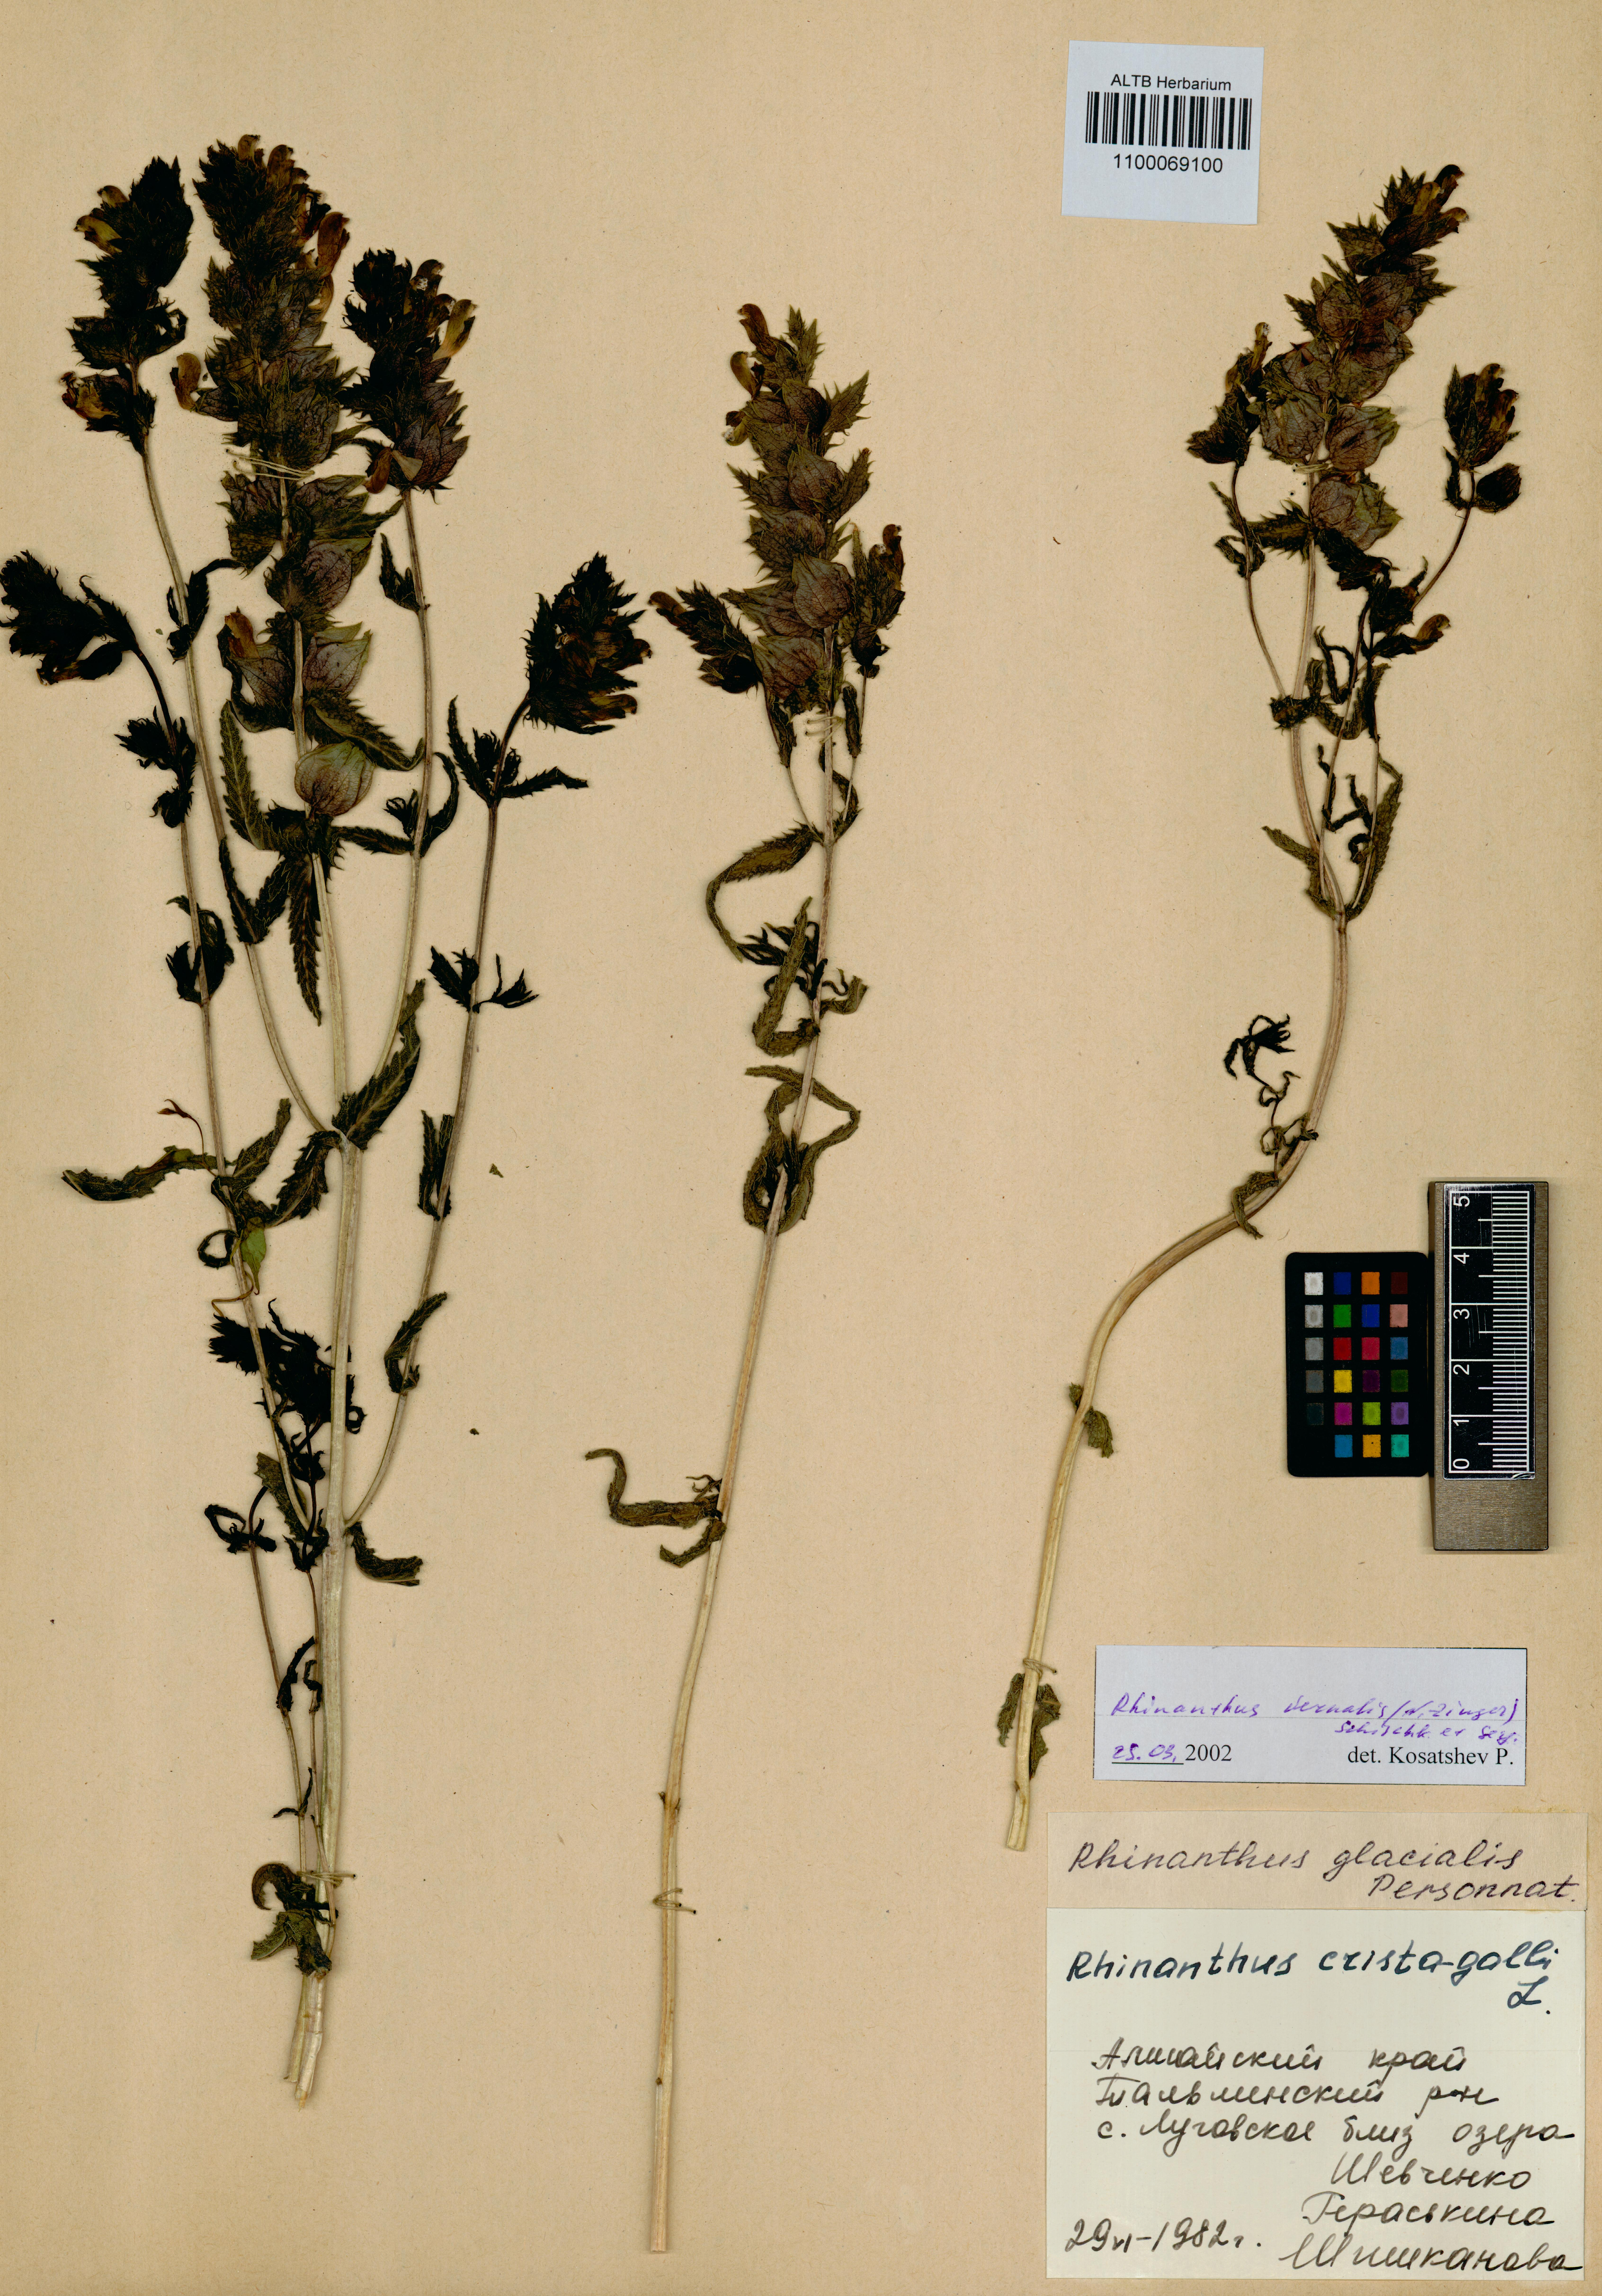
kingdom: Plantae
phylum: Tracheophyta
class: Magnoliopsida
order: Lamiales
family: Orobanchaceae
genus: Rhinanthus
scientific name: Rhinanthus serotinus
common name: Late-flowering yellow rattle
